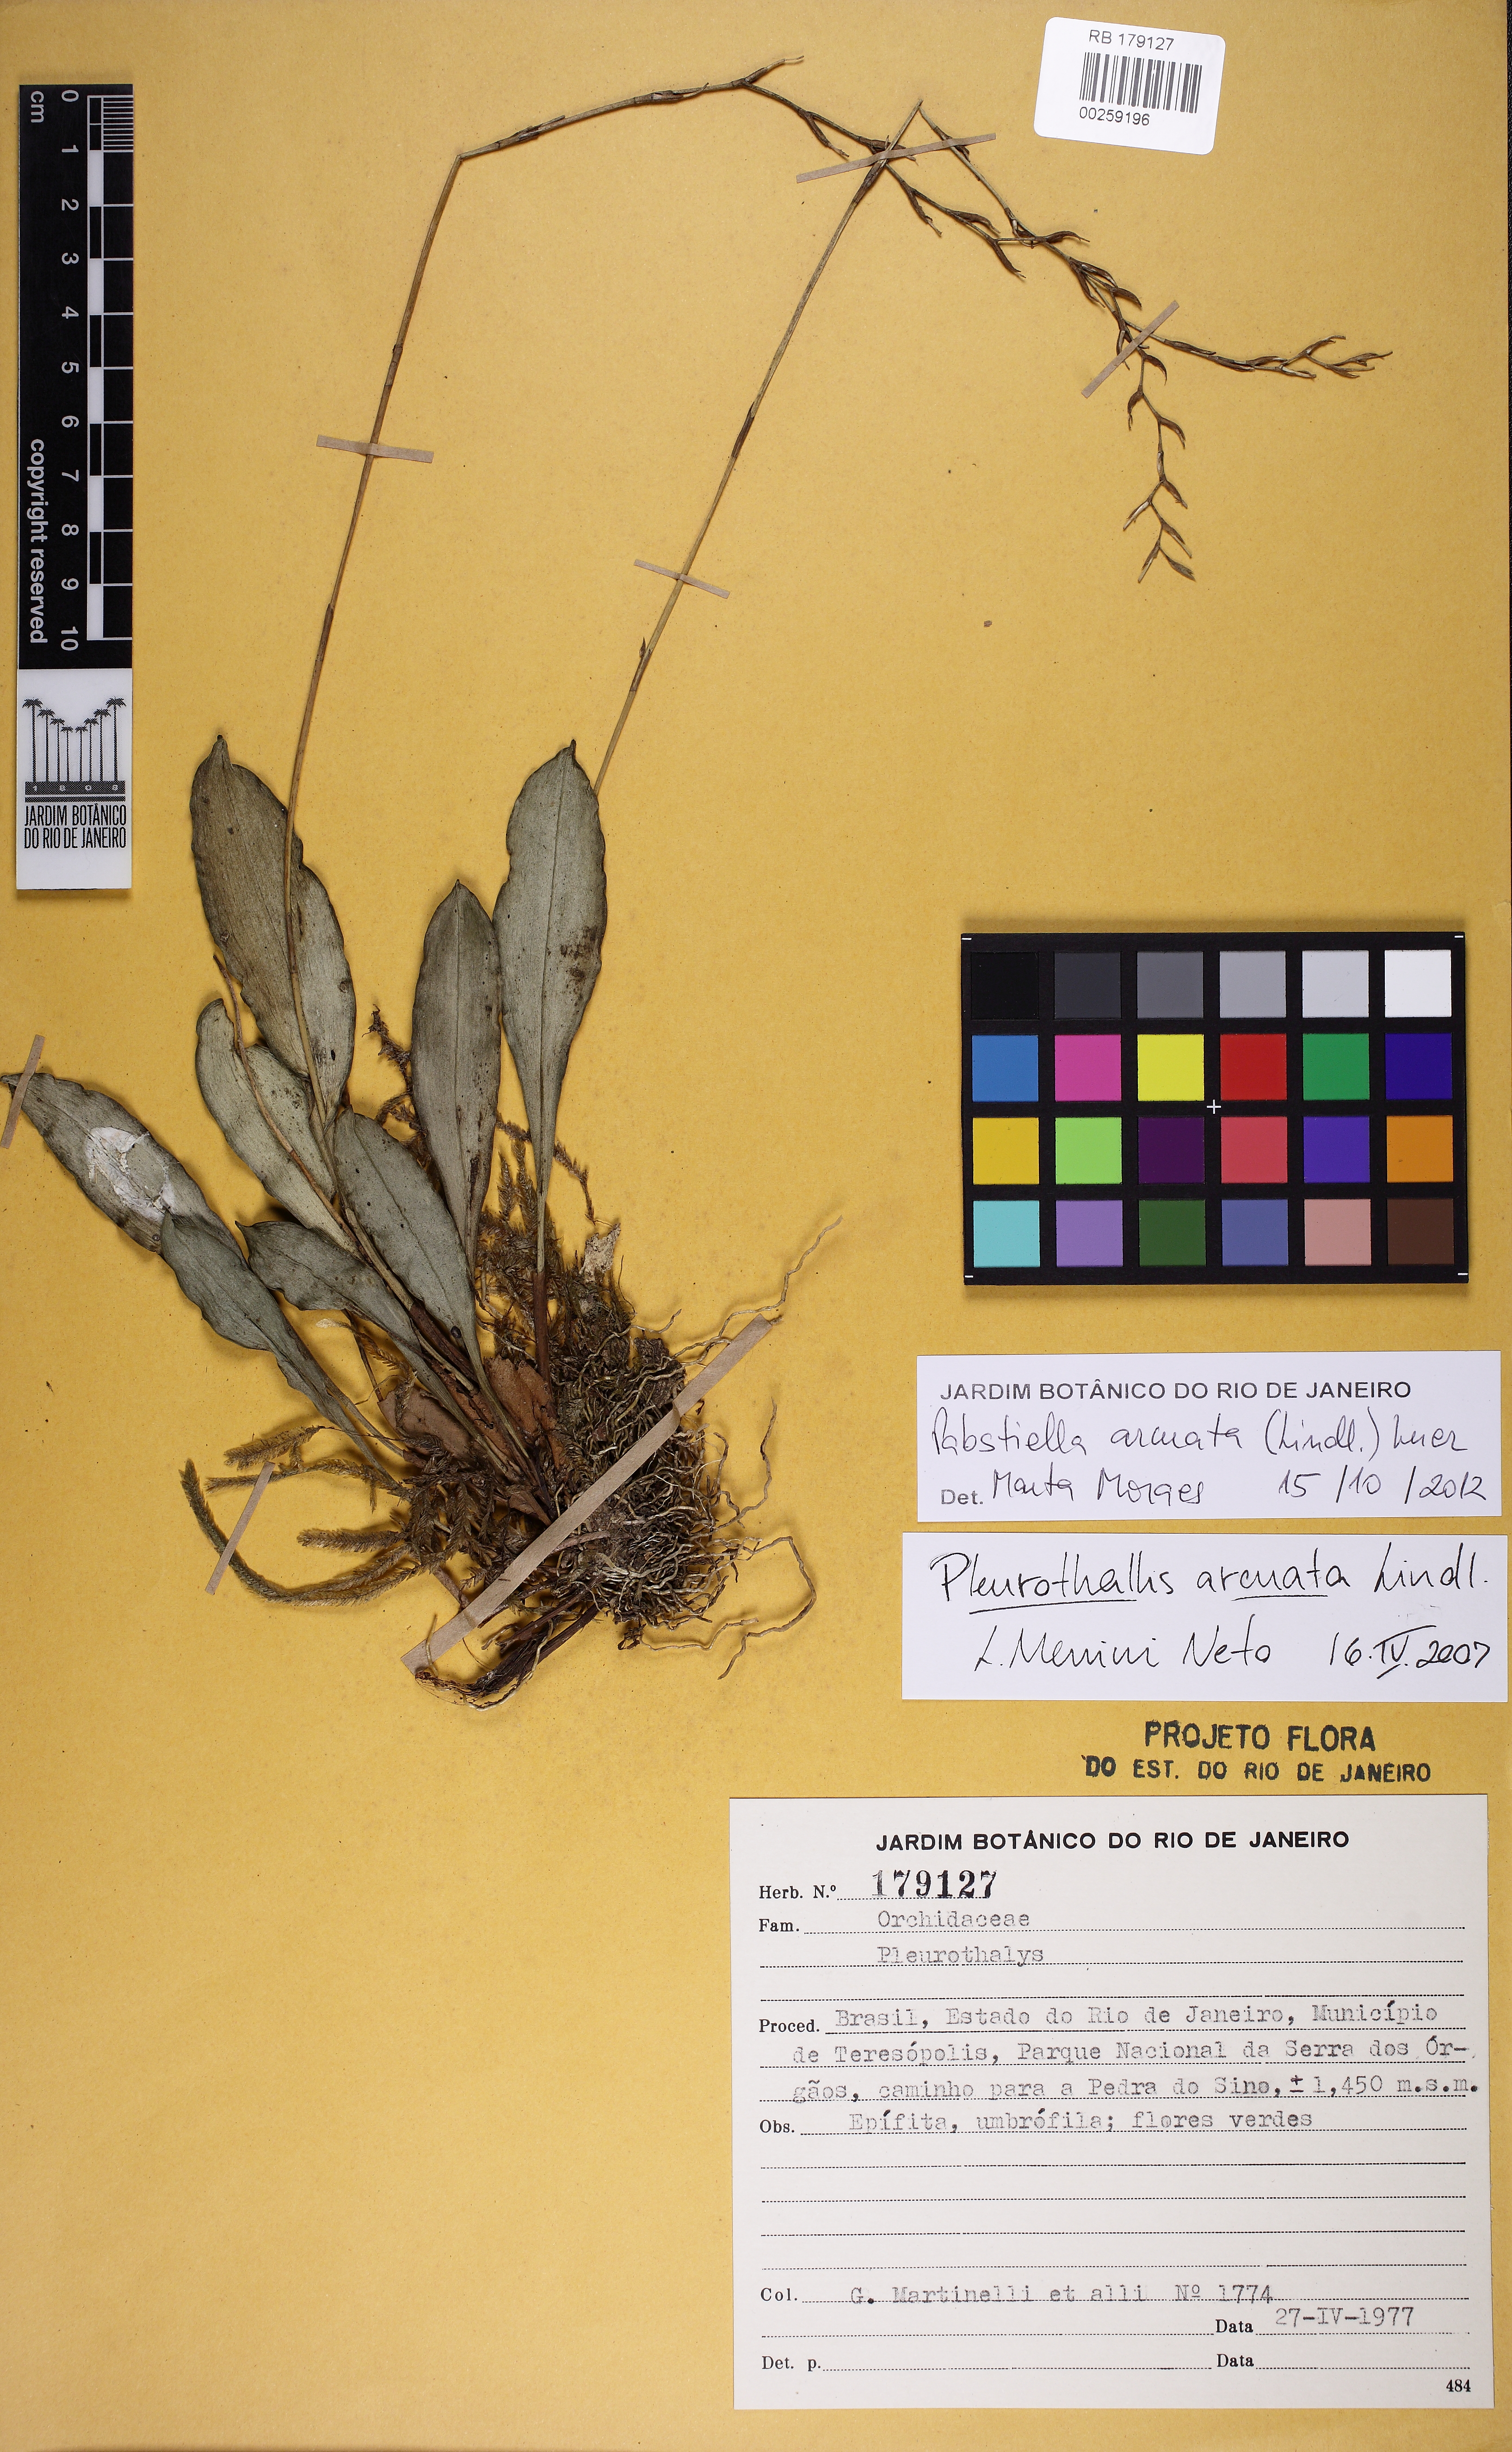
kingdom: Plantae
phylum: Tracheophyta
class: Liliopsida
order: Asparagales
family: Orchidaceae
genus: Pabstiella
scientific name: Pabstiella arcuata
